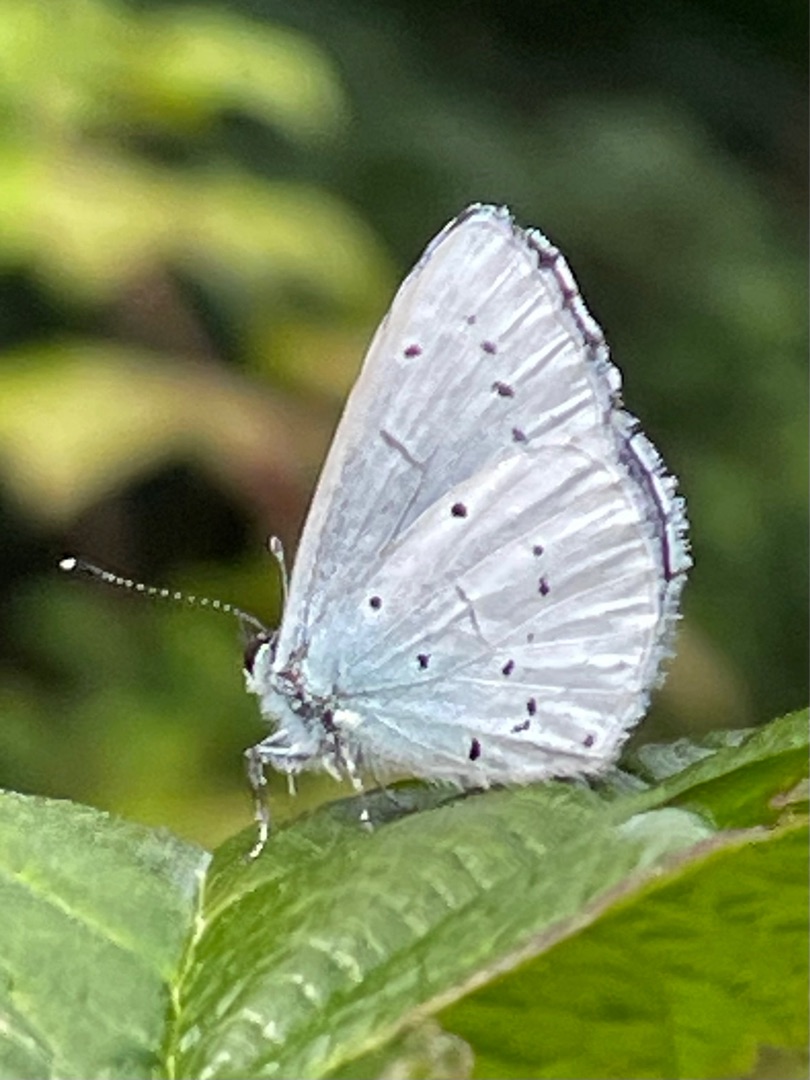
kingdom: Animalia
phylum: Arthropoda
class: Insecta
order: Lepidoptera
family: Lycaenidae
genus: Celastrina
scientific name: Celastrina argiolus
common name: Skovblåfugl
